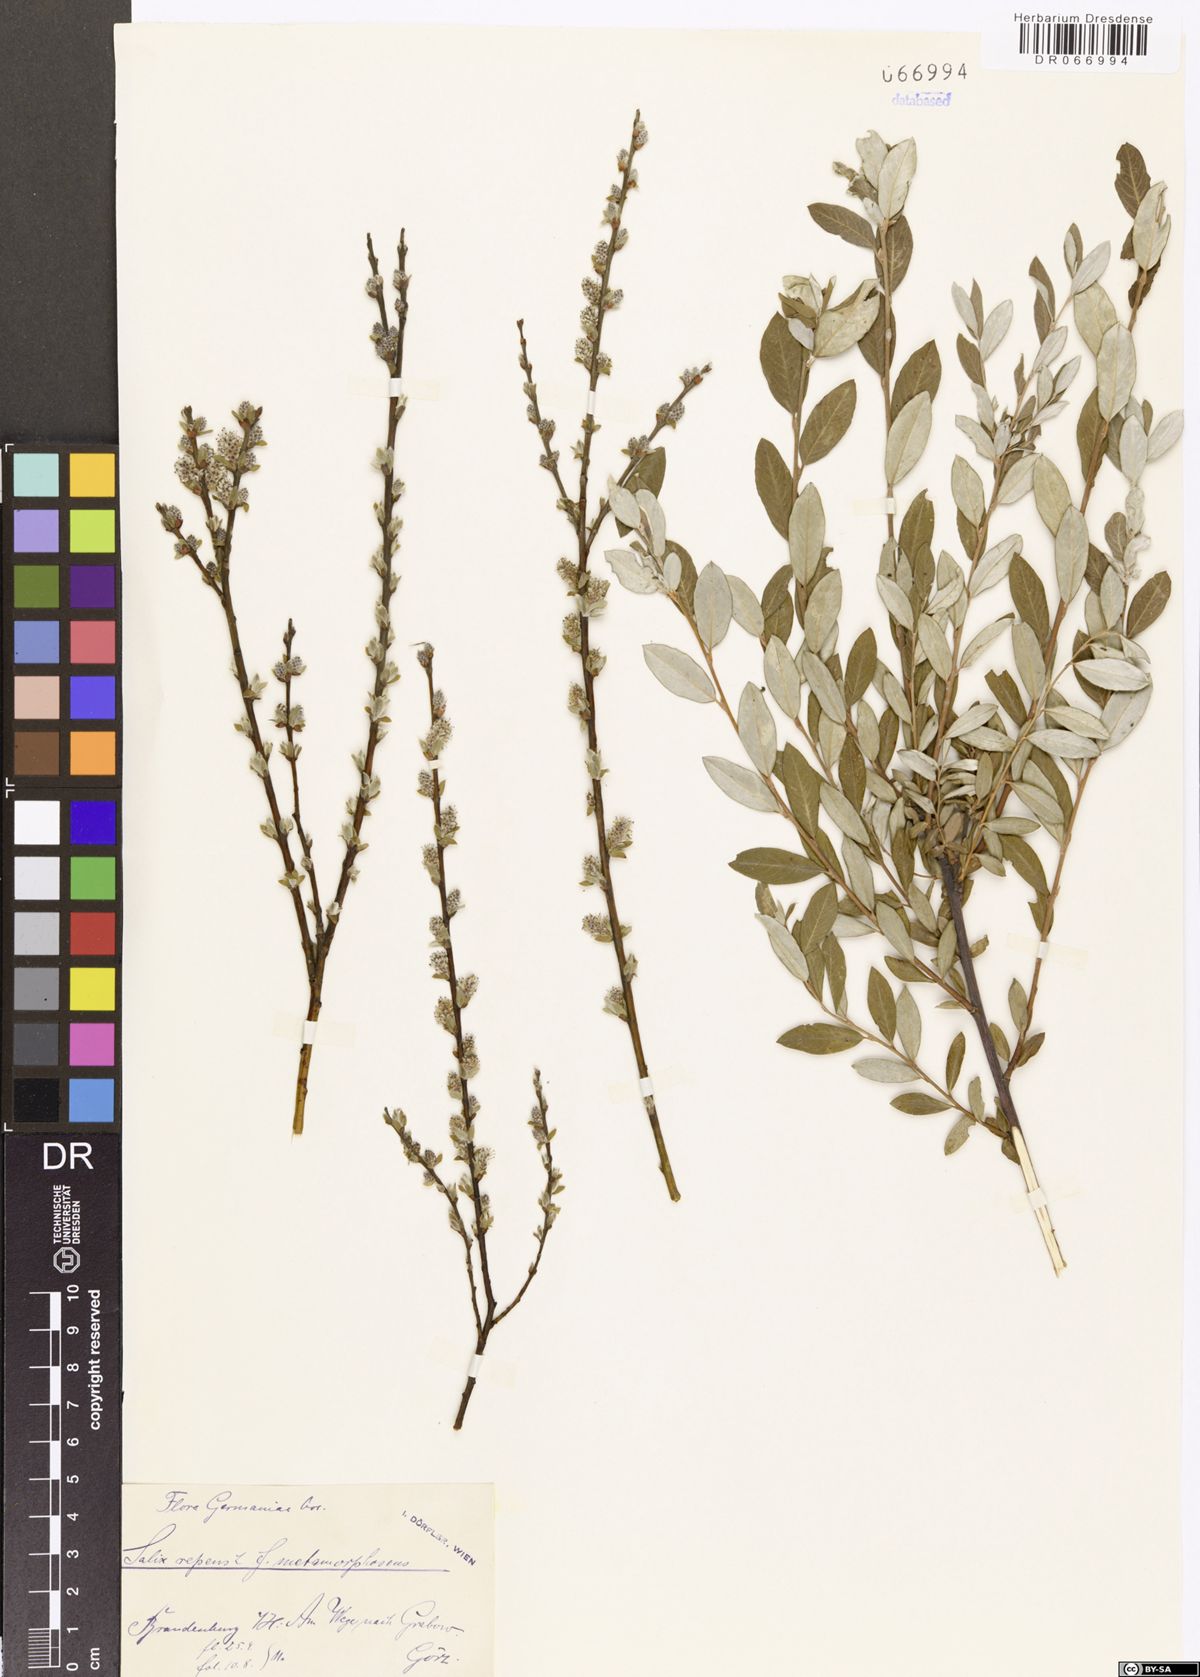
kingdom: Plantae
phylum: Tracheophyta
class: Magnoliopsida
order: Malpighiales
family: Salicaceae
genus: Salix
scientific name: Salix repens
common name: Creeping willow
